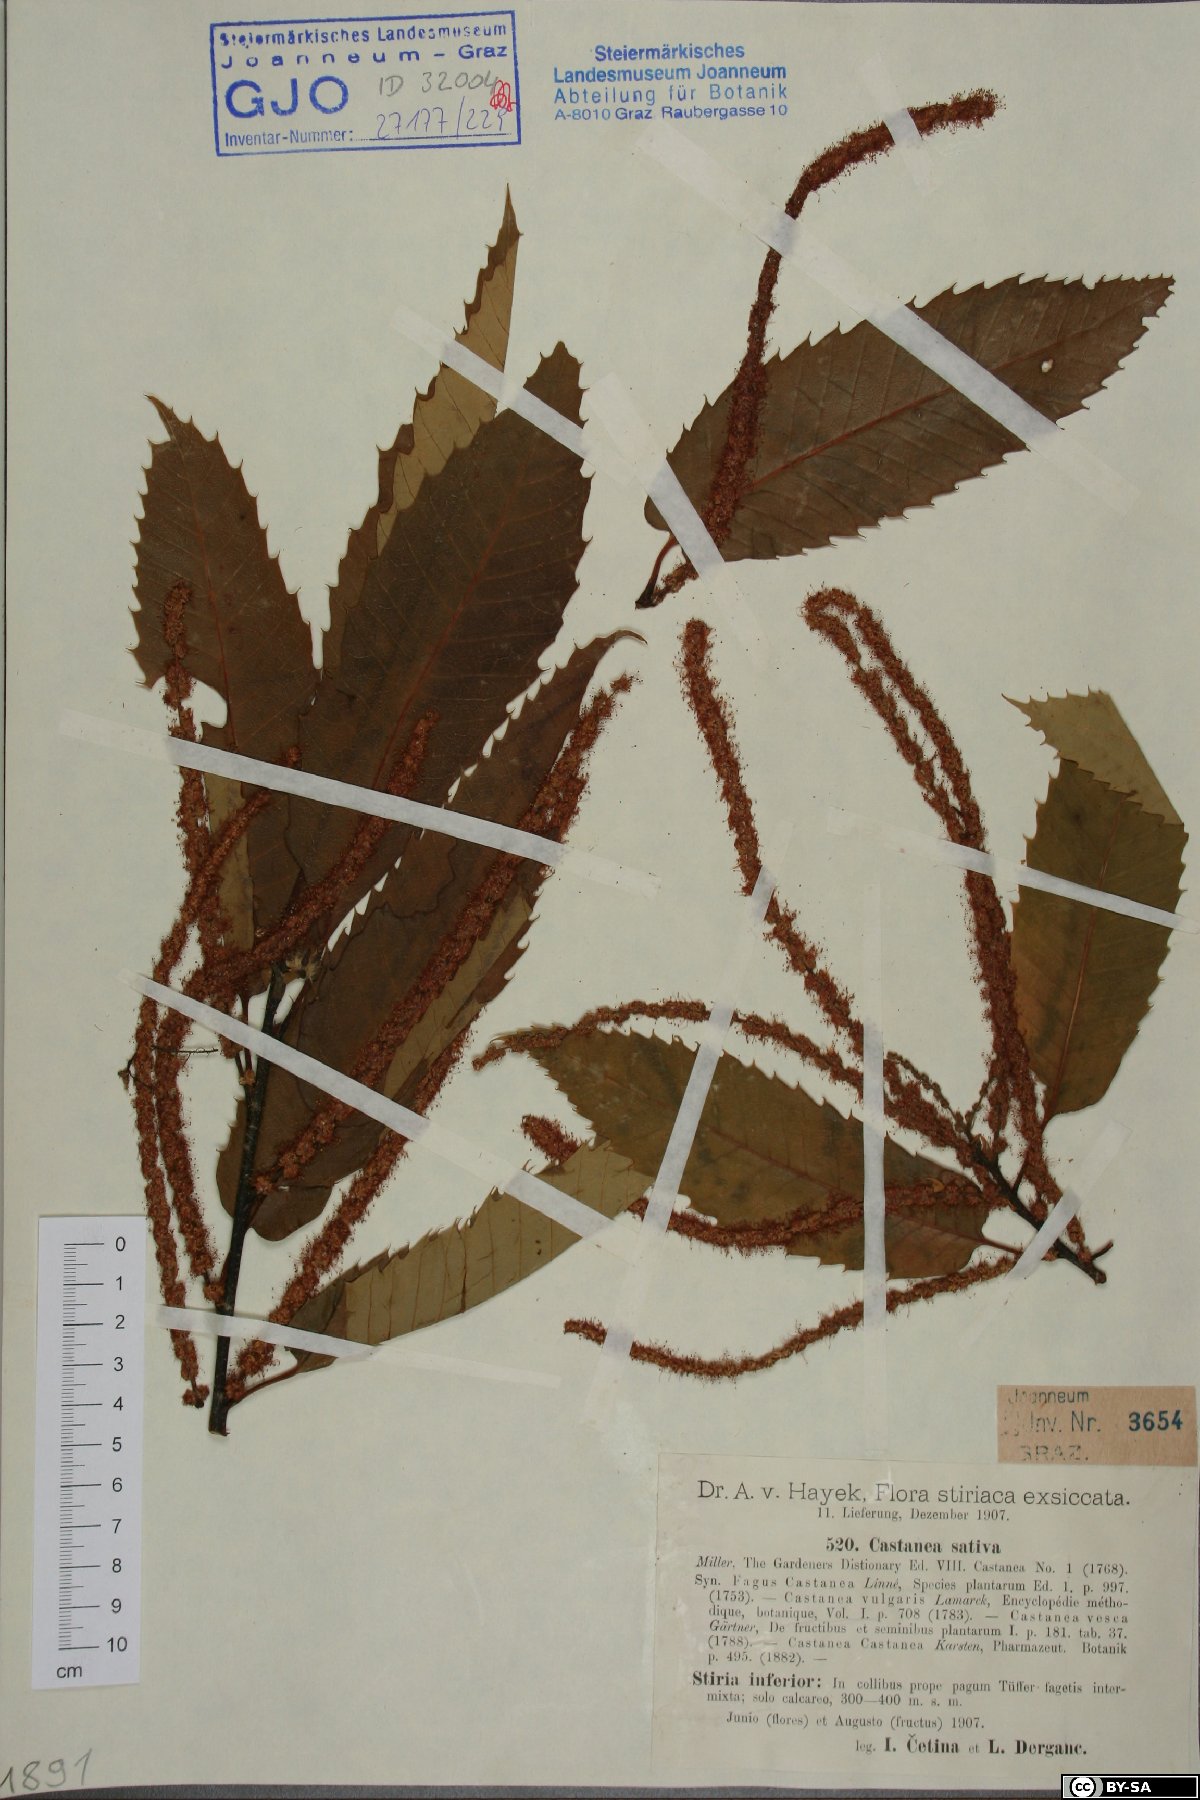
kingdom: Plantae
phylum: Tracheophyta
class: Magnoliopsida
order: Fagales
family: Fagaceae
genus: Castanea
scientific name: Castanea sativa
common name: Sweet chestnut
